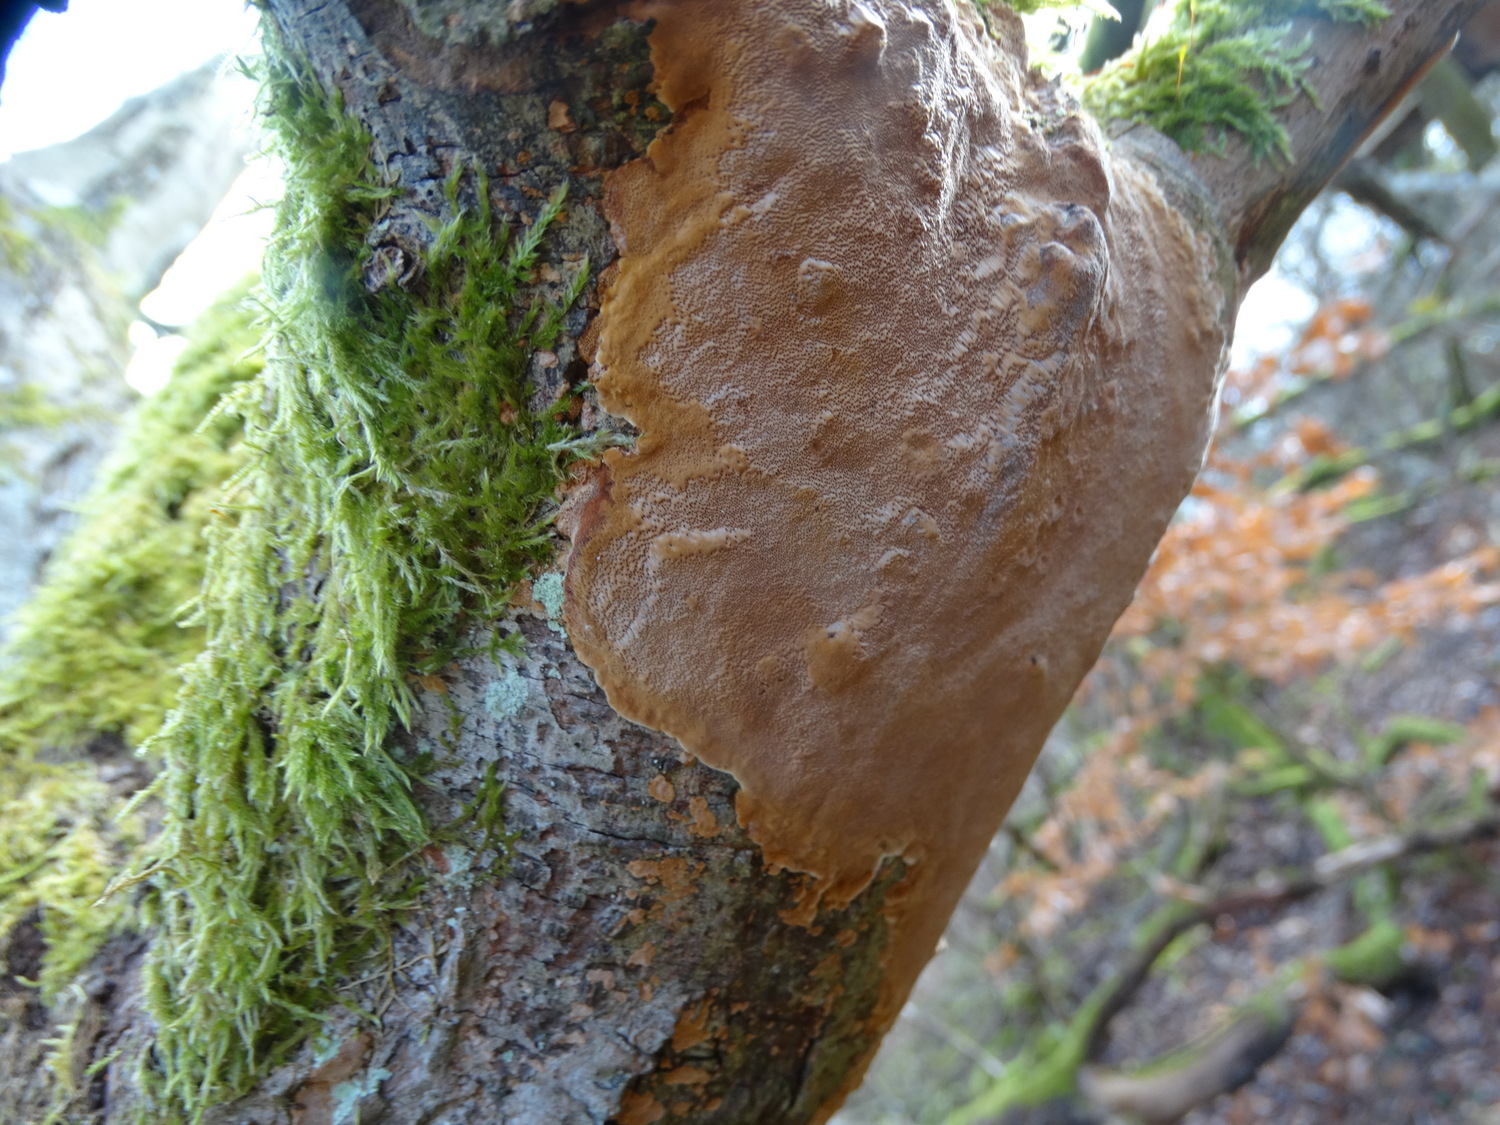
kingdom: Fungi
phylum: Basidiomycota
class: Agaricomycetes
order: Hymenochaetales
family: Hymenochaetaceae
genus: Fuscoporia
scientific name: Fuscoporia ferrea
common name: skorpe-ildporesvamp
